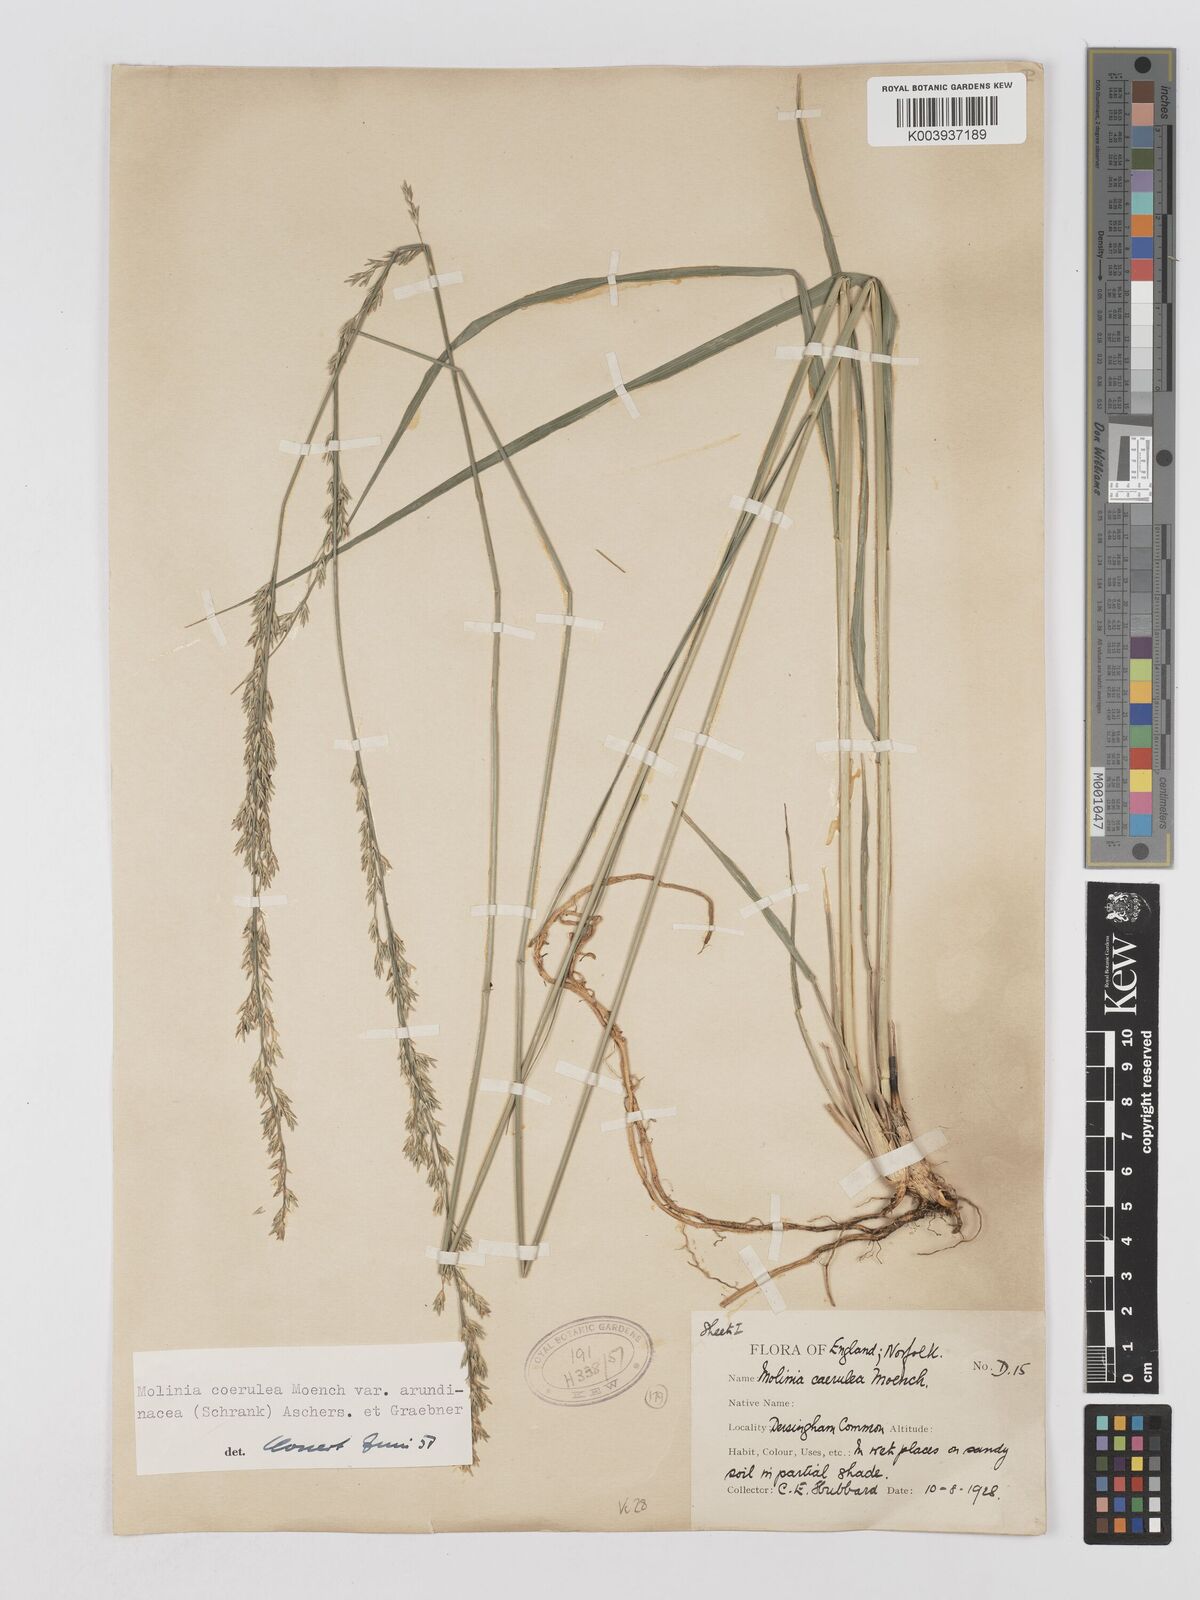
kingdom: Plantae
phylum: Tracheophyta
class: Liliopsida
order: Poales
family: Poaceae
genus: Molinia
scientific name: Molinia caerulea
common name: Purple moor-grass
